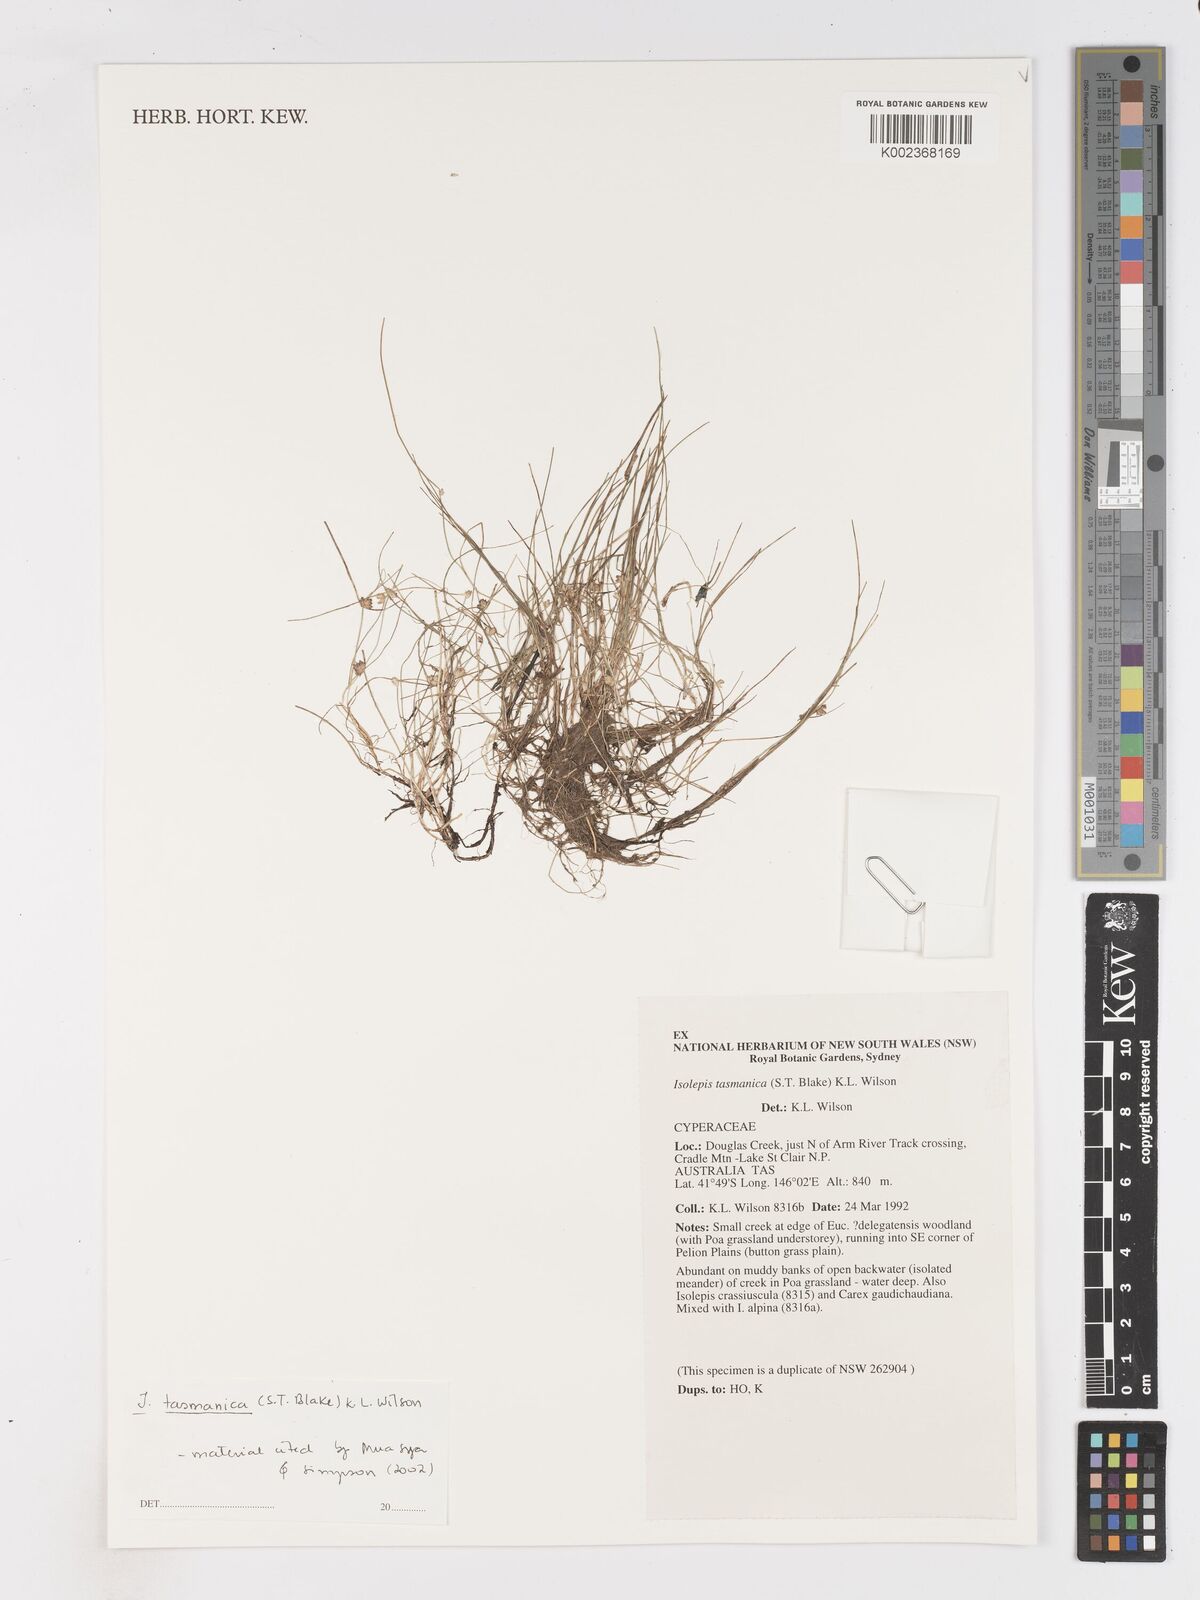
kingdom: Plantae
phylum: Tracheophyta
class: Liliopsida
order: Poales
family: Cyperaceae
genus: Isolepis
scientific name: Isolepis tasmanica
